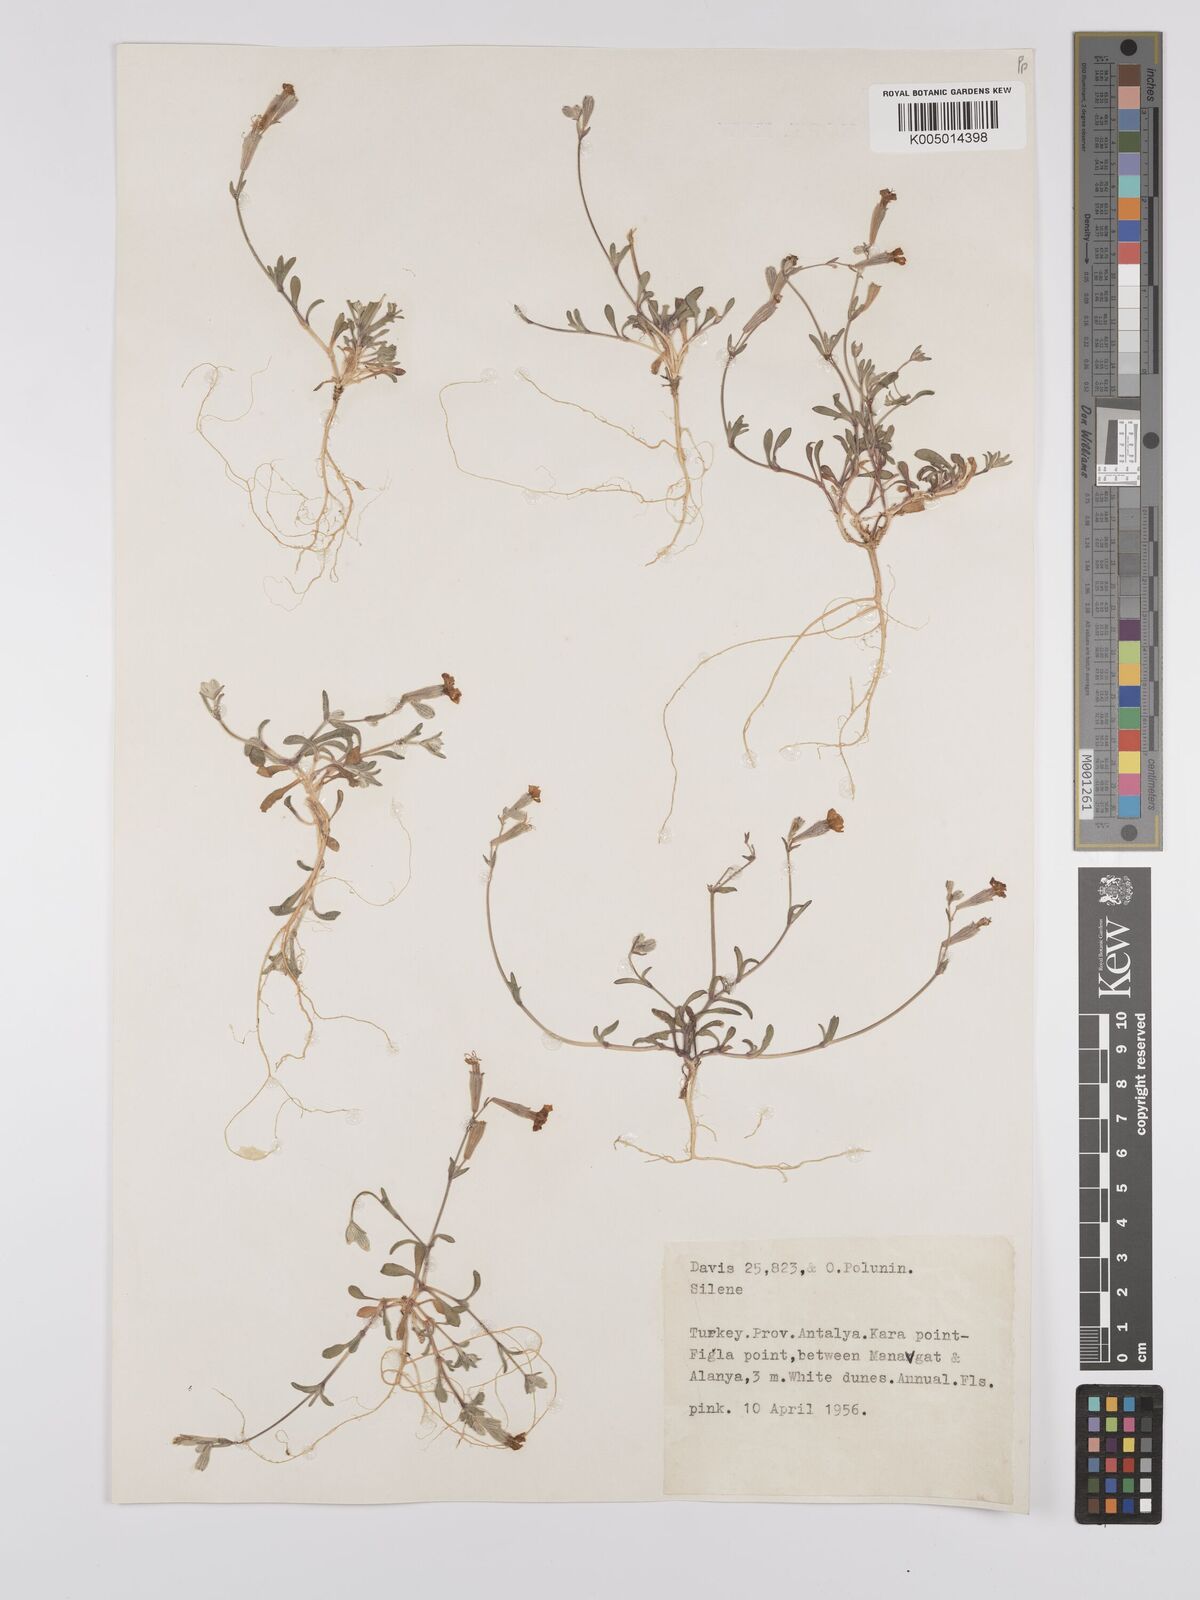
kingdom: Plantae
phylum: Tracheophyta
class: Magnoliopsida
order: Caryophyllales
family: Caryophyllaceae
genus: Silene
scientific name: Silene
